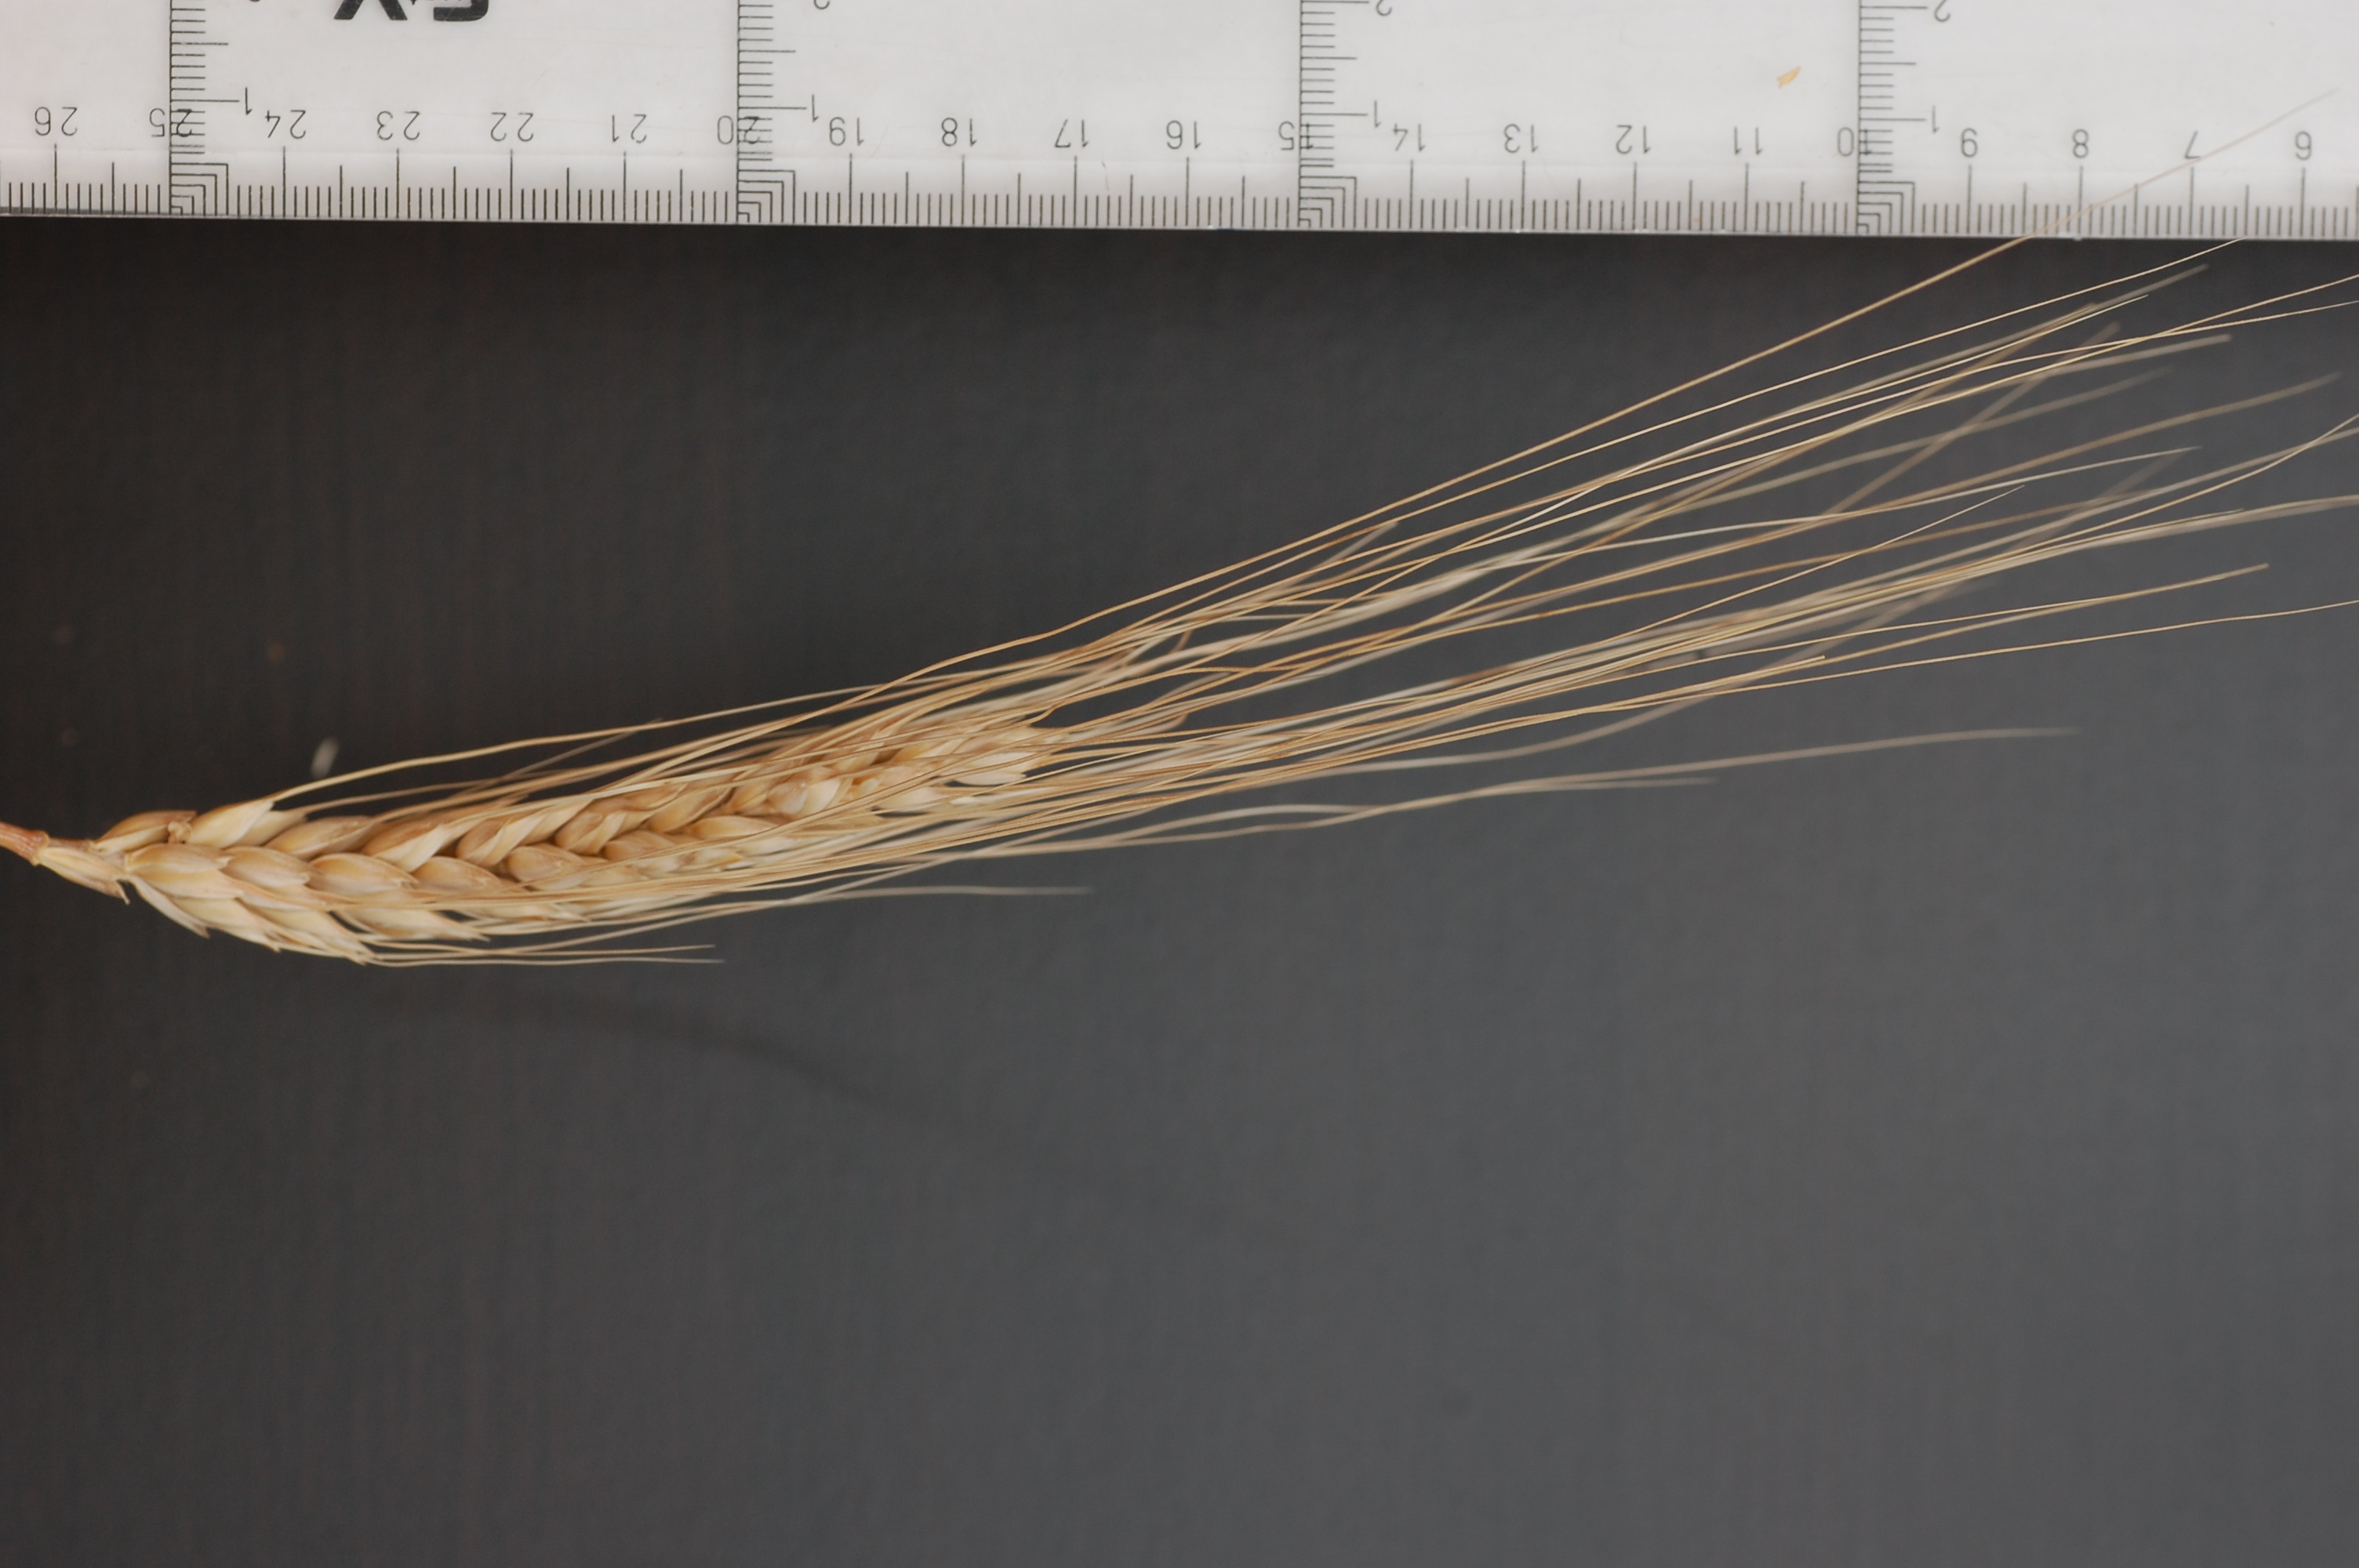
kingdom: Plantae
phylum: Tracheophyta
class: Liliopsida
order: Poales
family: Poaceae
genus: Triticum
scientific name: Triticum aestivum
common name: Common wheat
